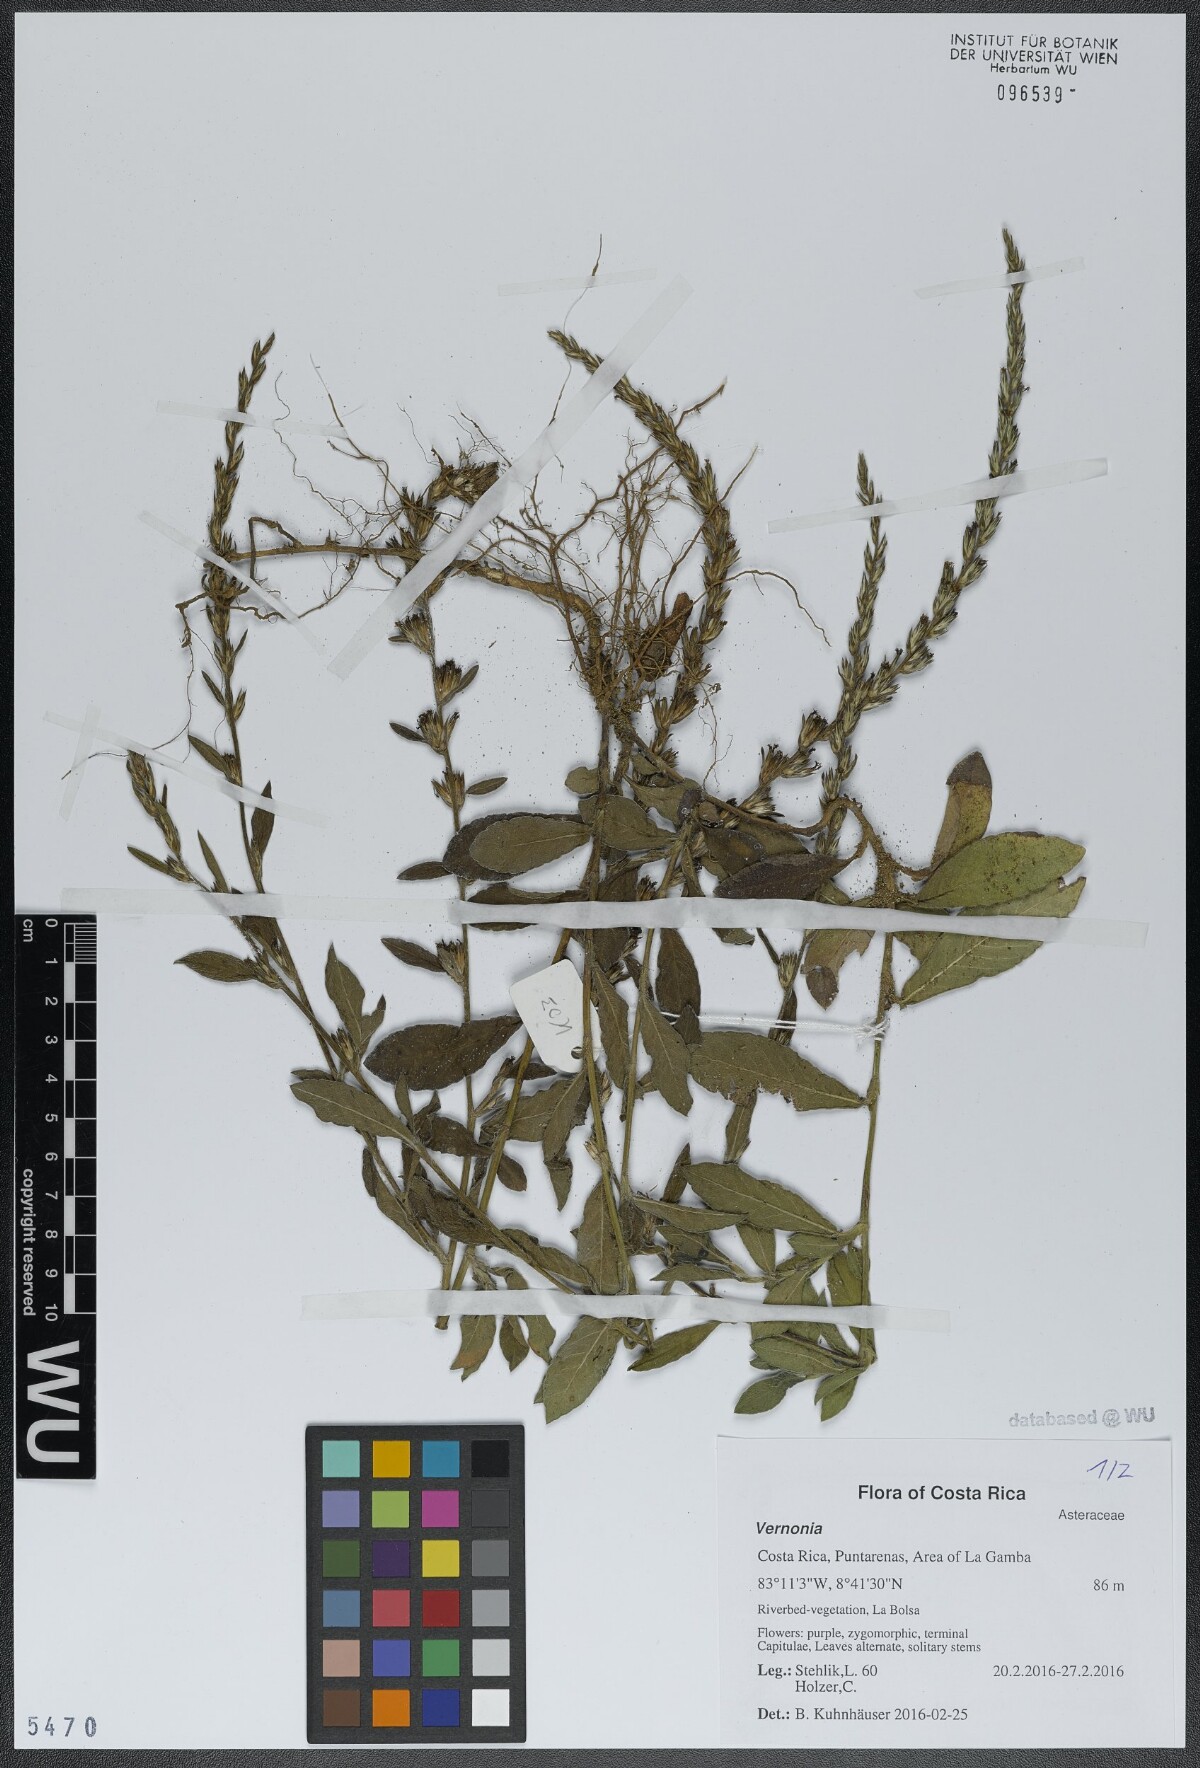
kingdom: Plantae
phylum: Tracheophyta
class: Magnoliopsida
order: Asterales
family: Asteraceae
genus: Vernonia
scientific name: Vernonia
